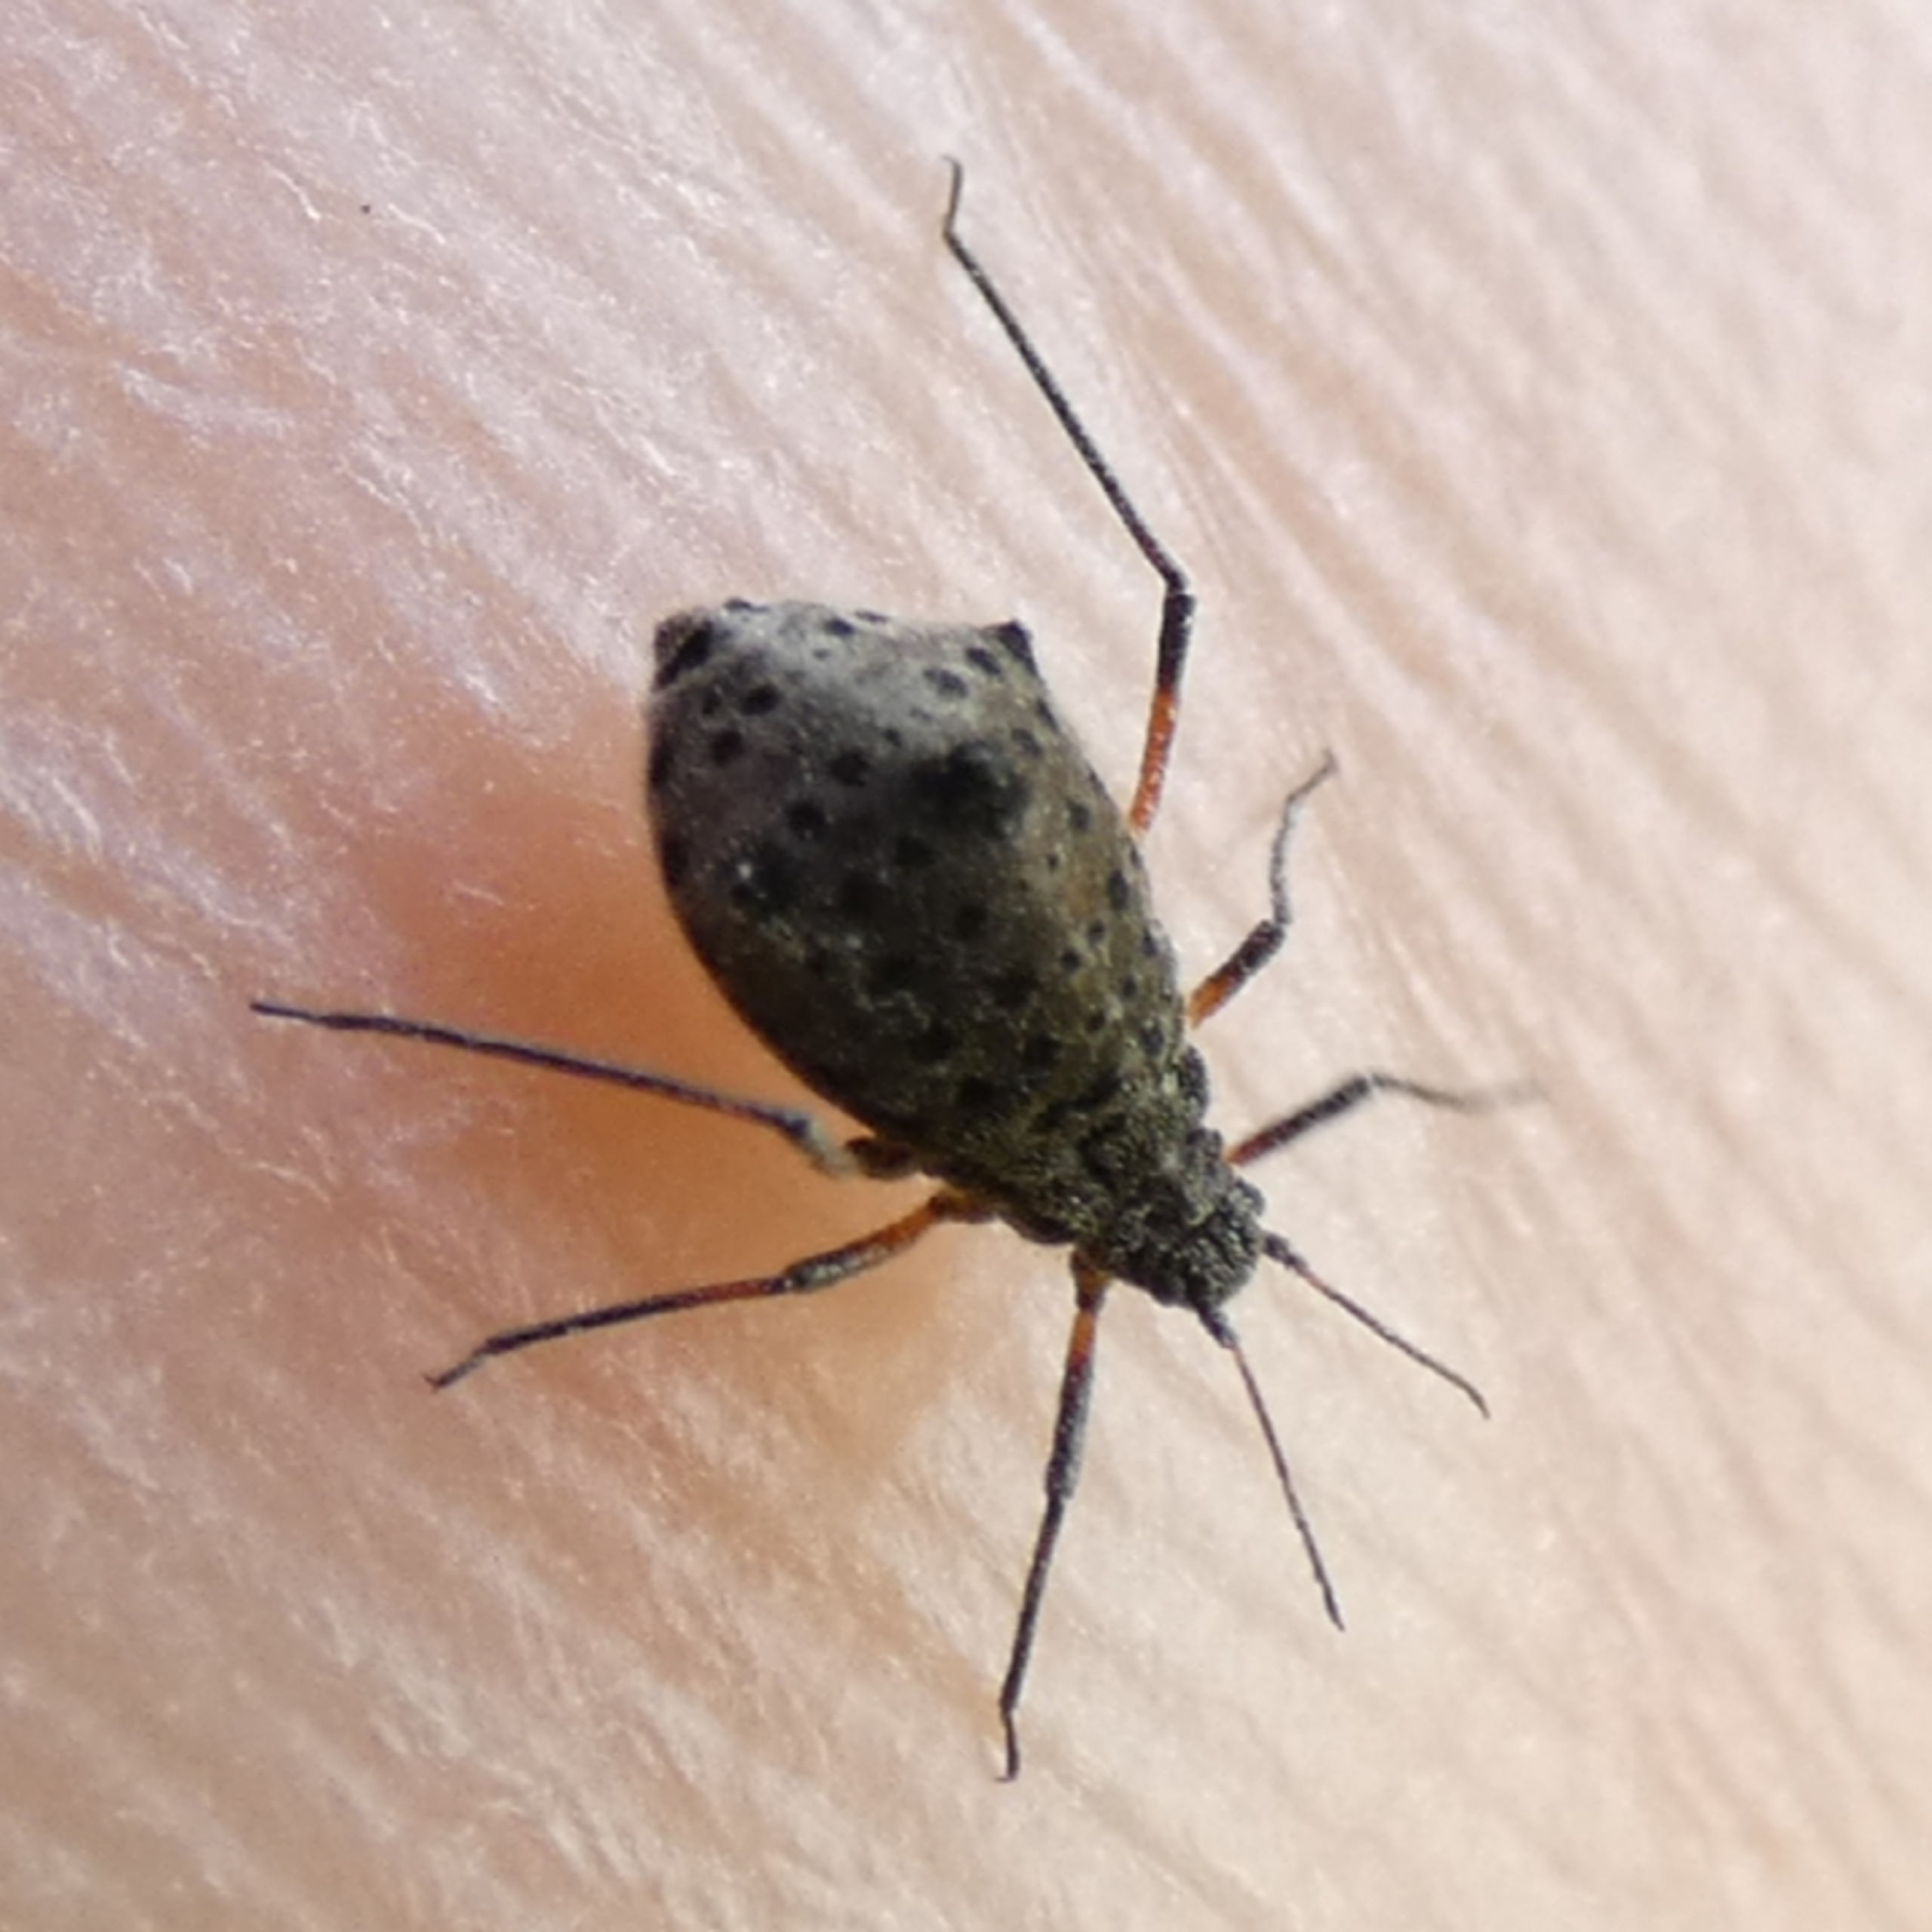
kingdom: Animalia
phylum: Arthropoda
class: Insecta
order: Hemiptera
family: Aphididae
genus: Tuberolachnus
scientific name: Tuberolachnus salignus
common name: Pilegrenbladlus
